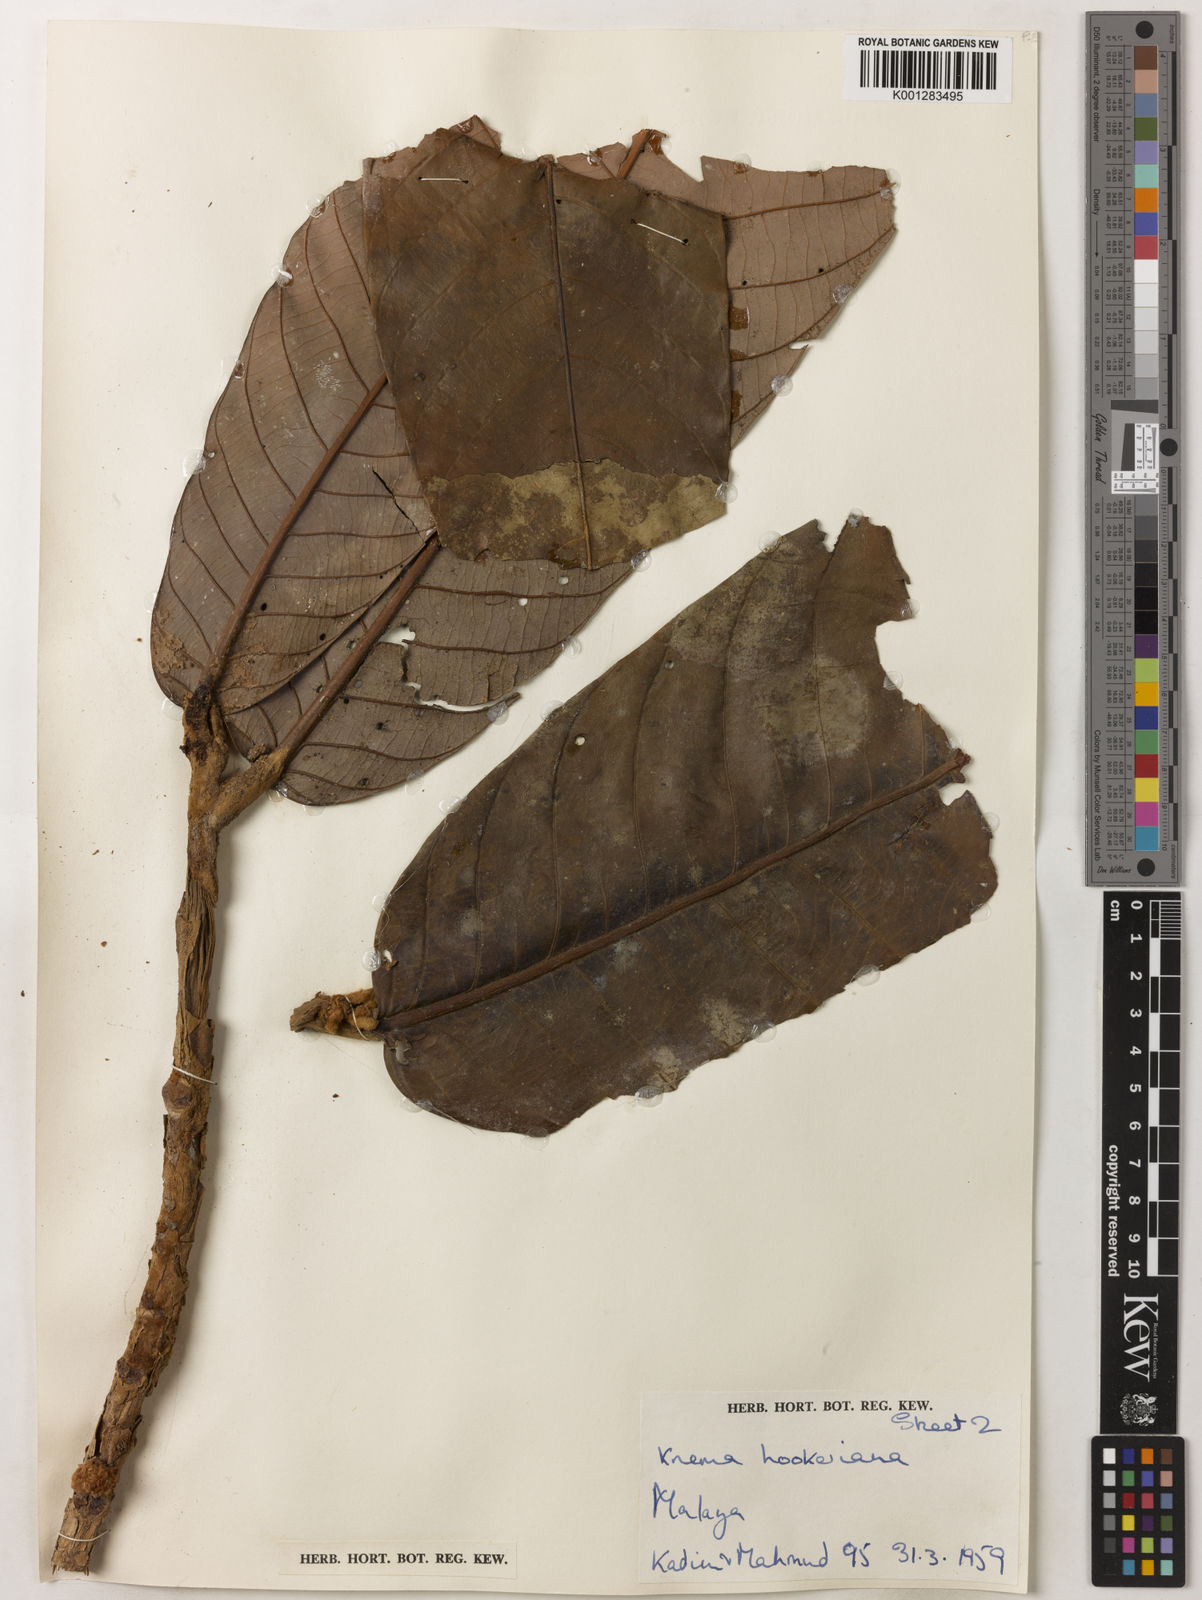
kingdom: Plantae
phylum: Tracheophyta
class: Magnoliopsida
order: Magnoliales
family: Myristicaceae
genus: Knema
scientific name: Knema hookeriana
